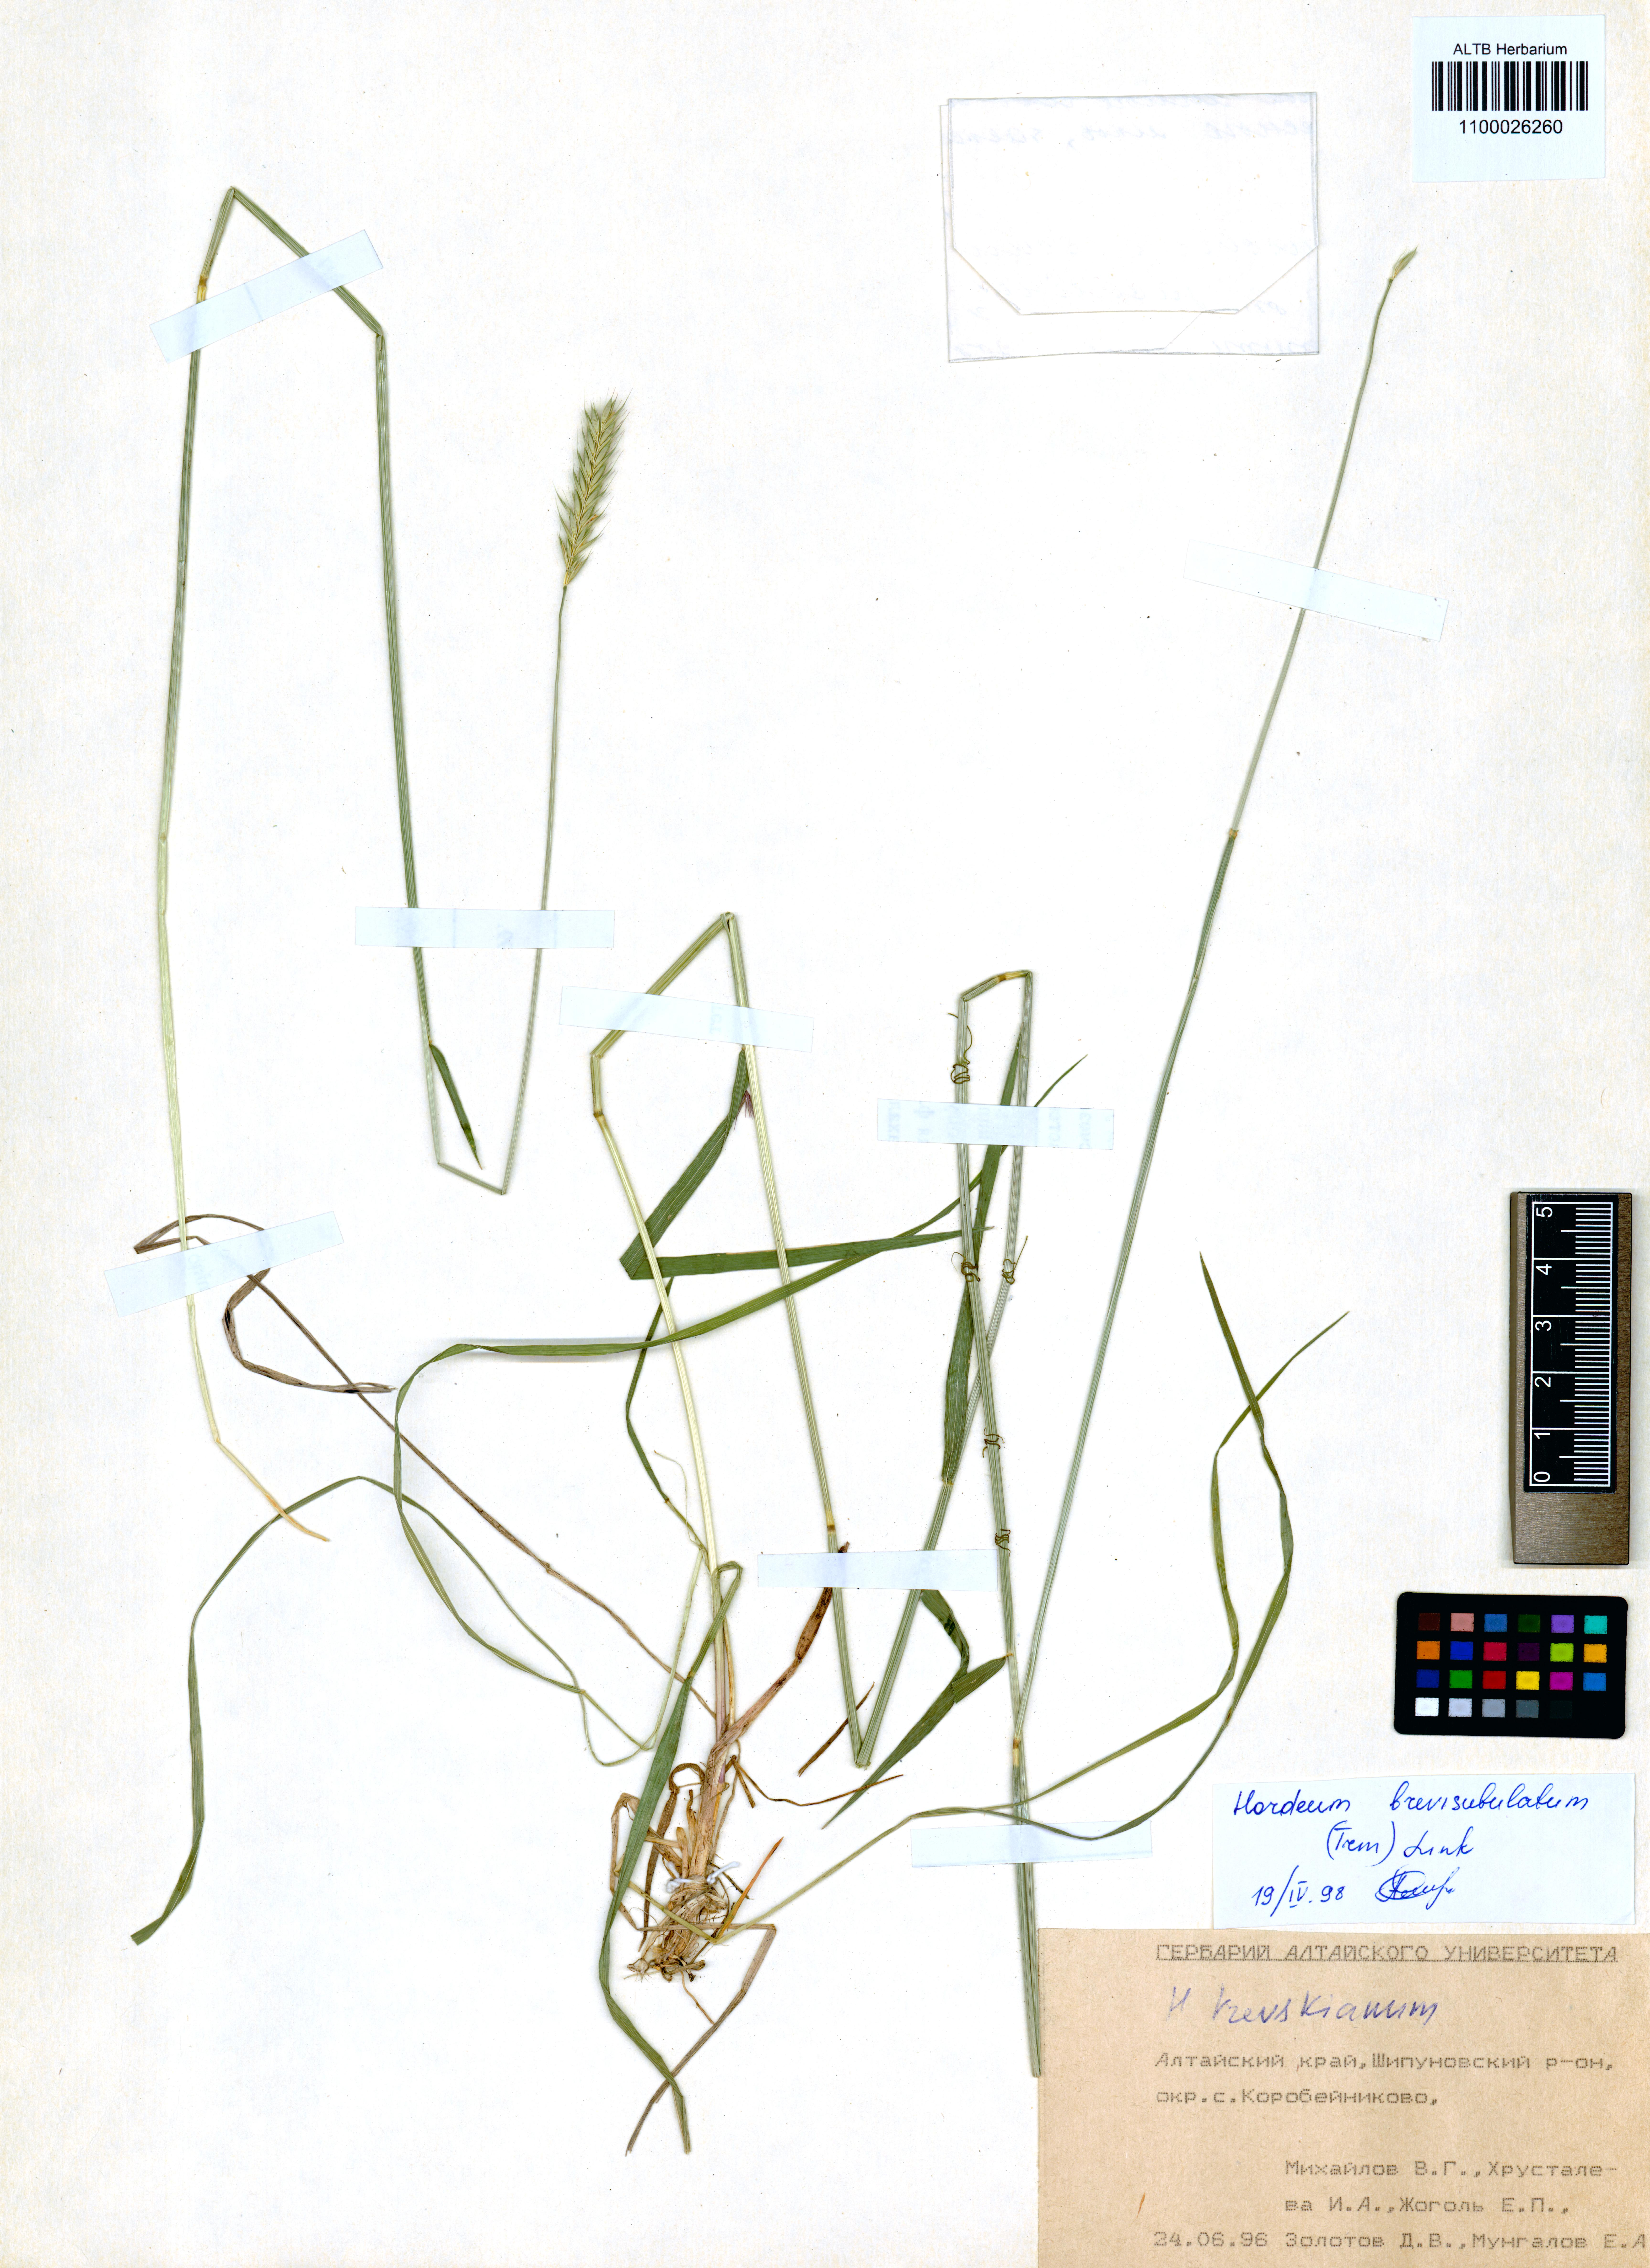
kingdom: Plantae
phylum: Tracheophyta
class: Liliopsida
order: Poales
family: Poaceae
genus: Hordeum
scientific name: Hordeum brevisubulatum
